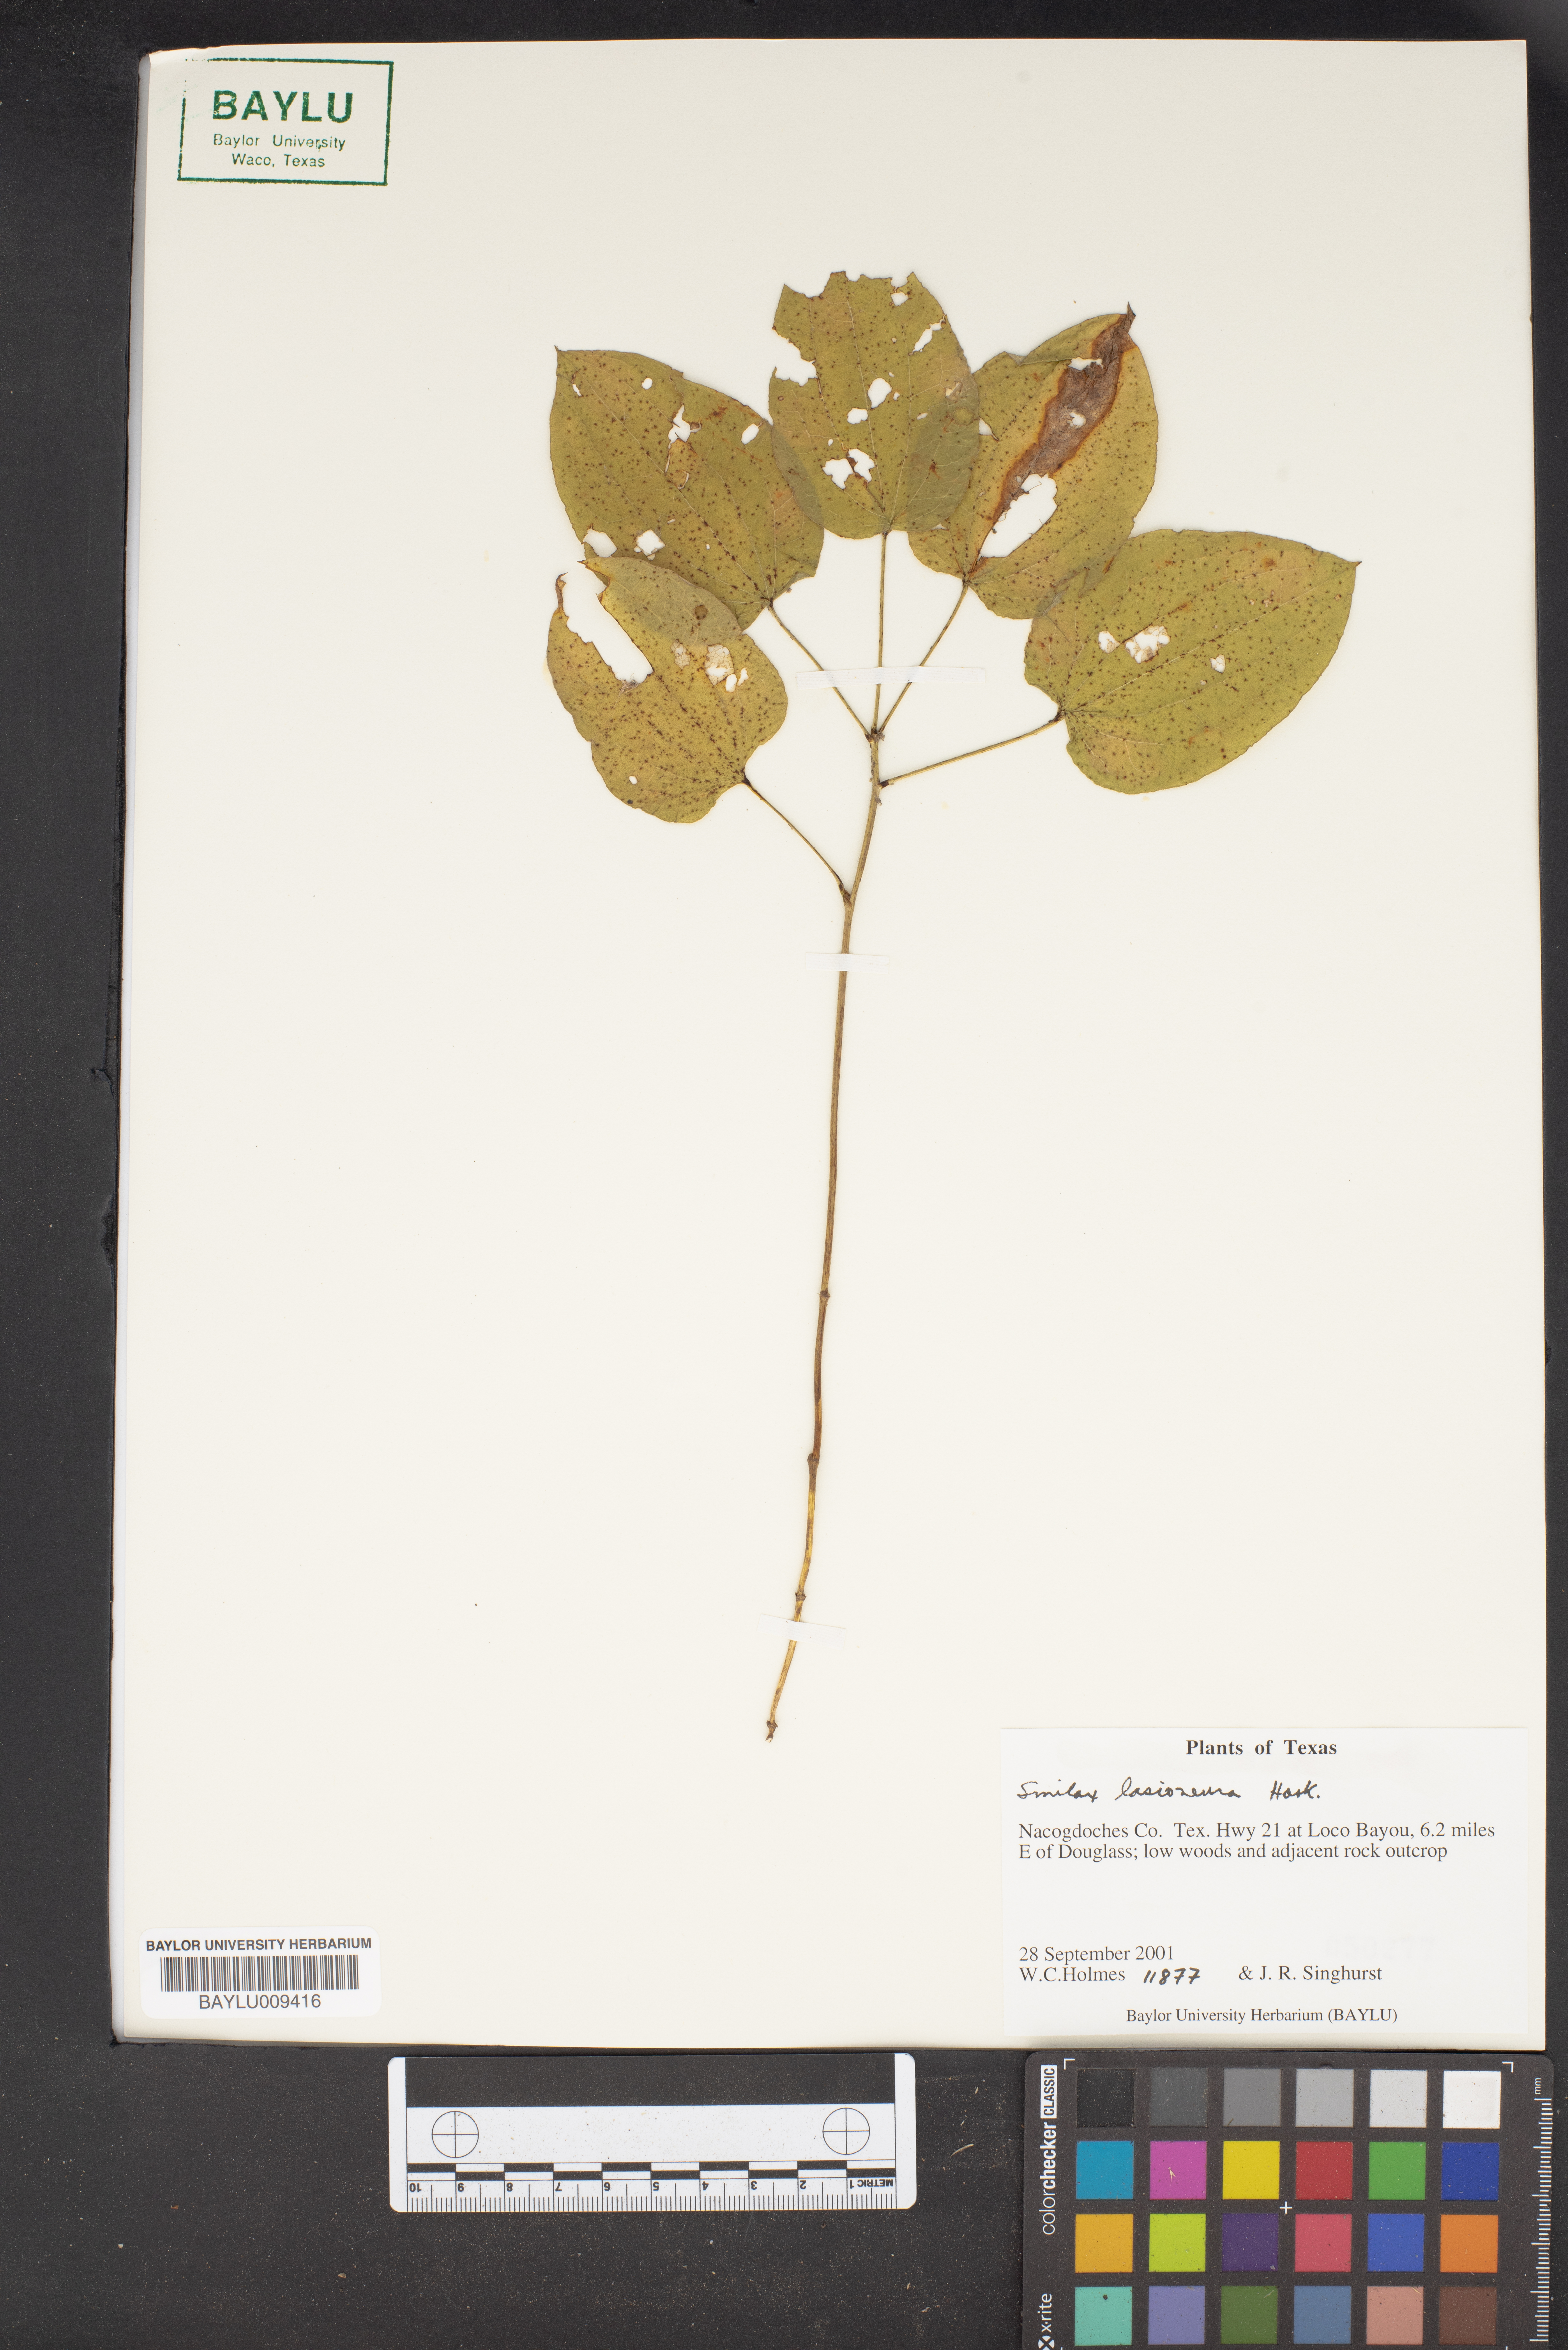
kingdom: Plantae
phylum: Tracheophyta
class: Liliopsida
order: Liliales
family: Smilacaceae
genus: Smilax
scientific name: Smilax lasioneura
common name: Blue ridge carrionflower
